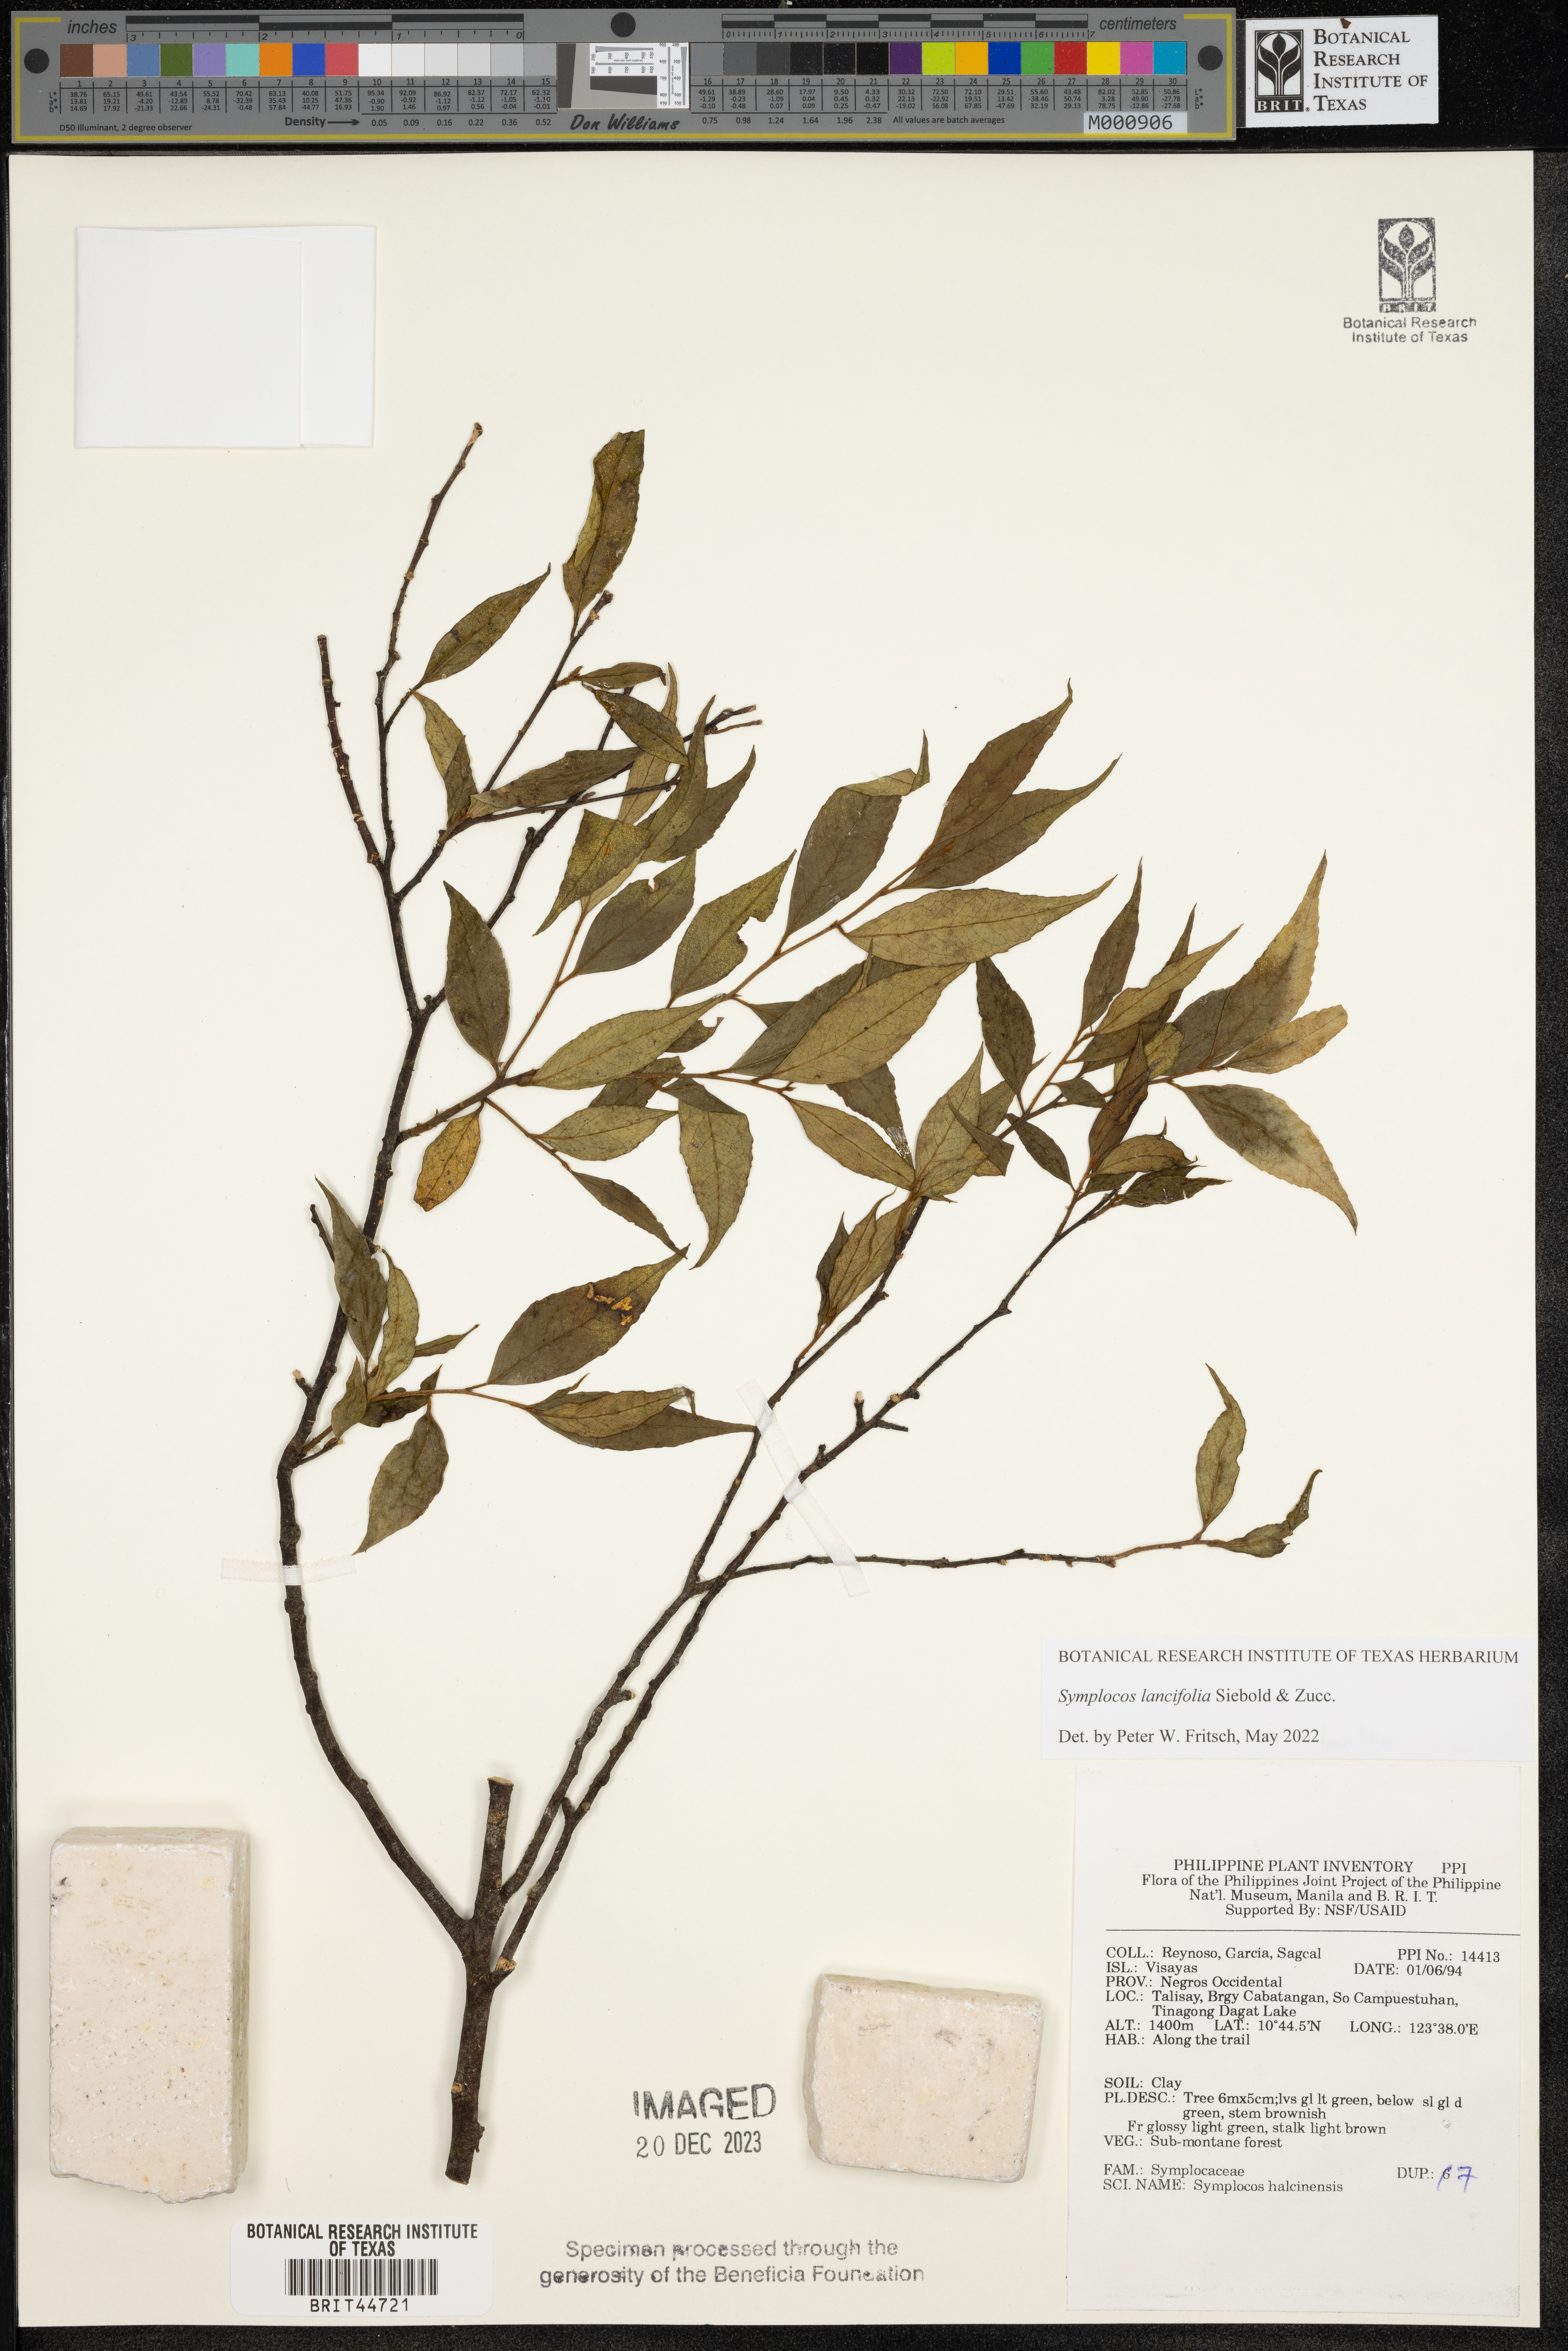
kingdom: Plantae
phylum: Tracheophyta
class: Magnoliopsida
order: Ericales
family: Symplocaceae
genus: Symplocos
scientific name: Symplocos
